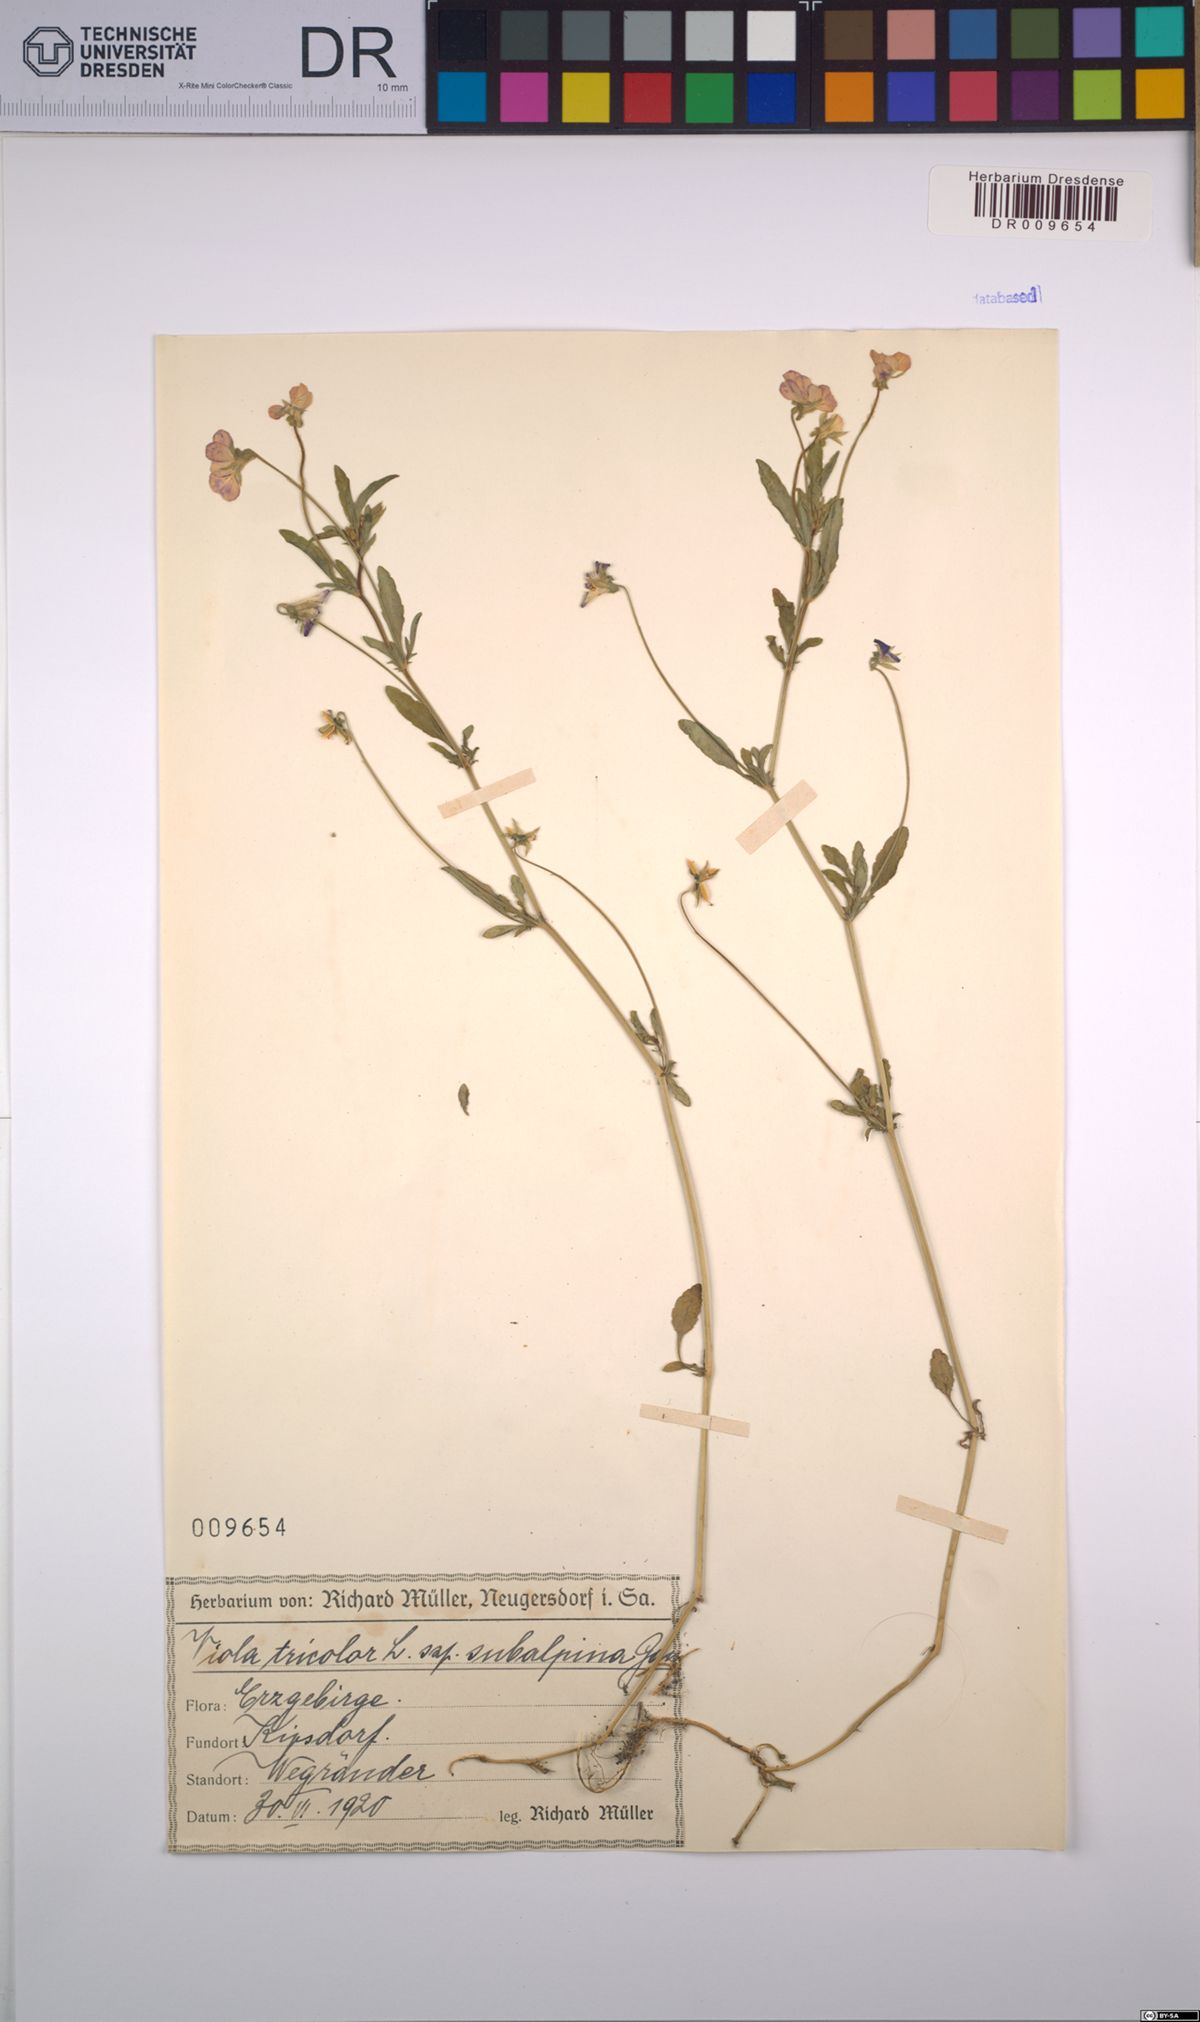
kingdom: Plantae
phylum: Tracheophyta
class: Magnoliopsida
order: Malpighiales
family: Violaceae
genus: Viola
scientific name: Viola tricolor
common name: Pansy
